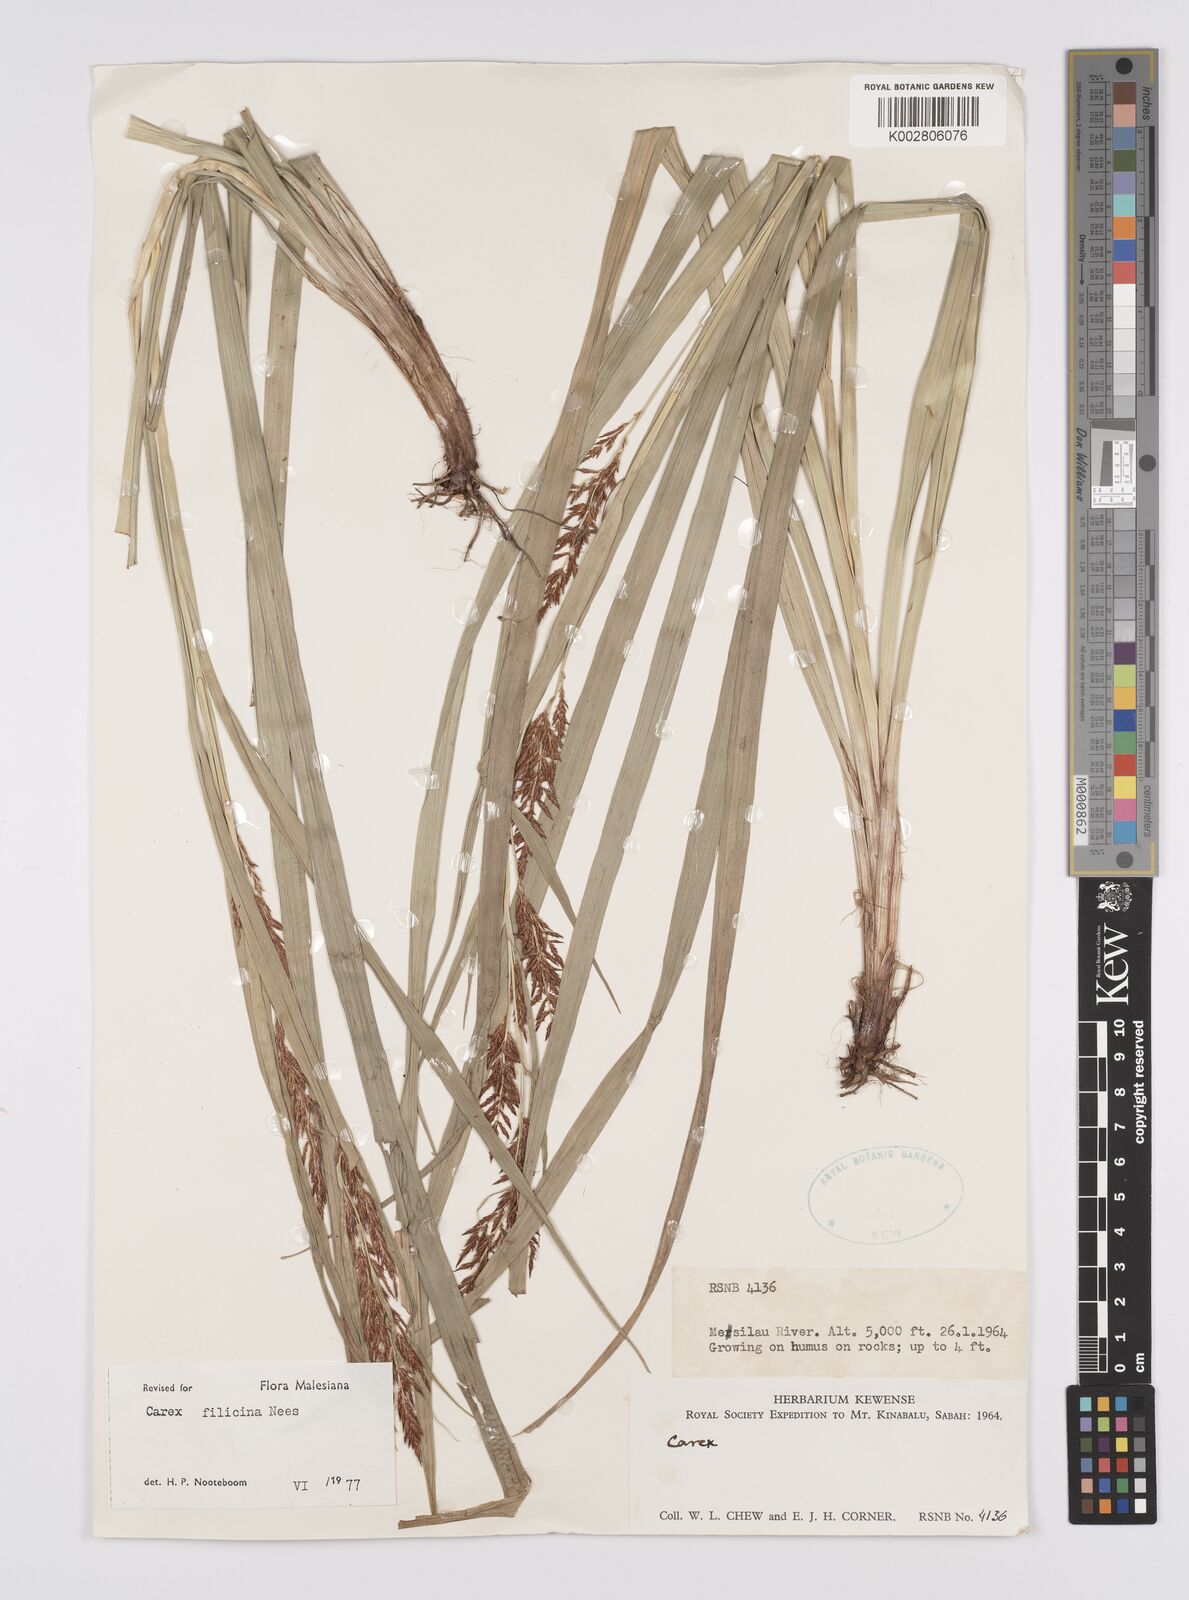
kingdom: Plantae
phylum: Tracheophyta
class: Liliopsida
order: Poales
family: Cyperaceae
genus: Carex
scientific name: Carex filicina
